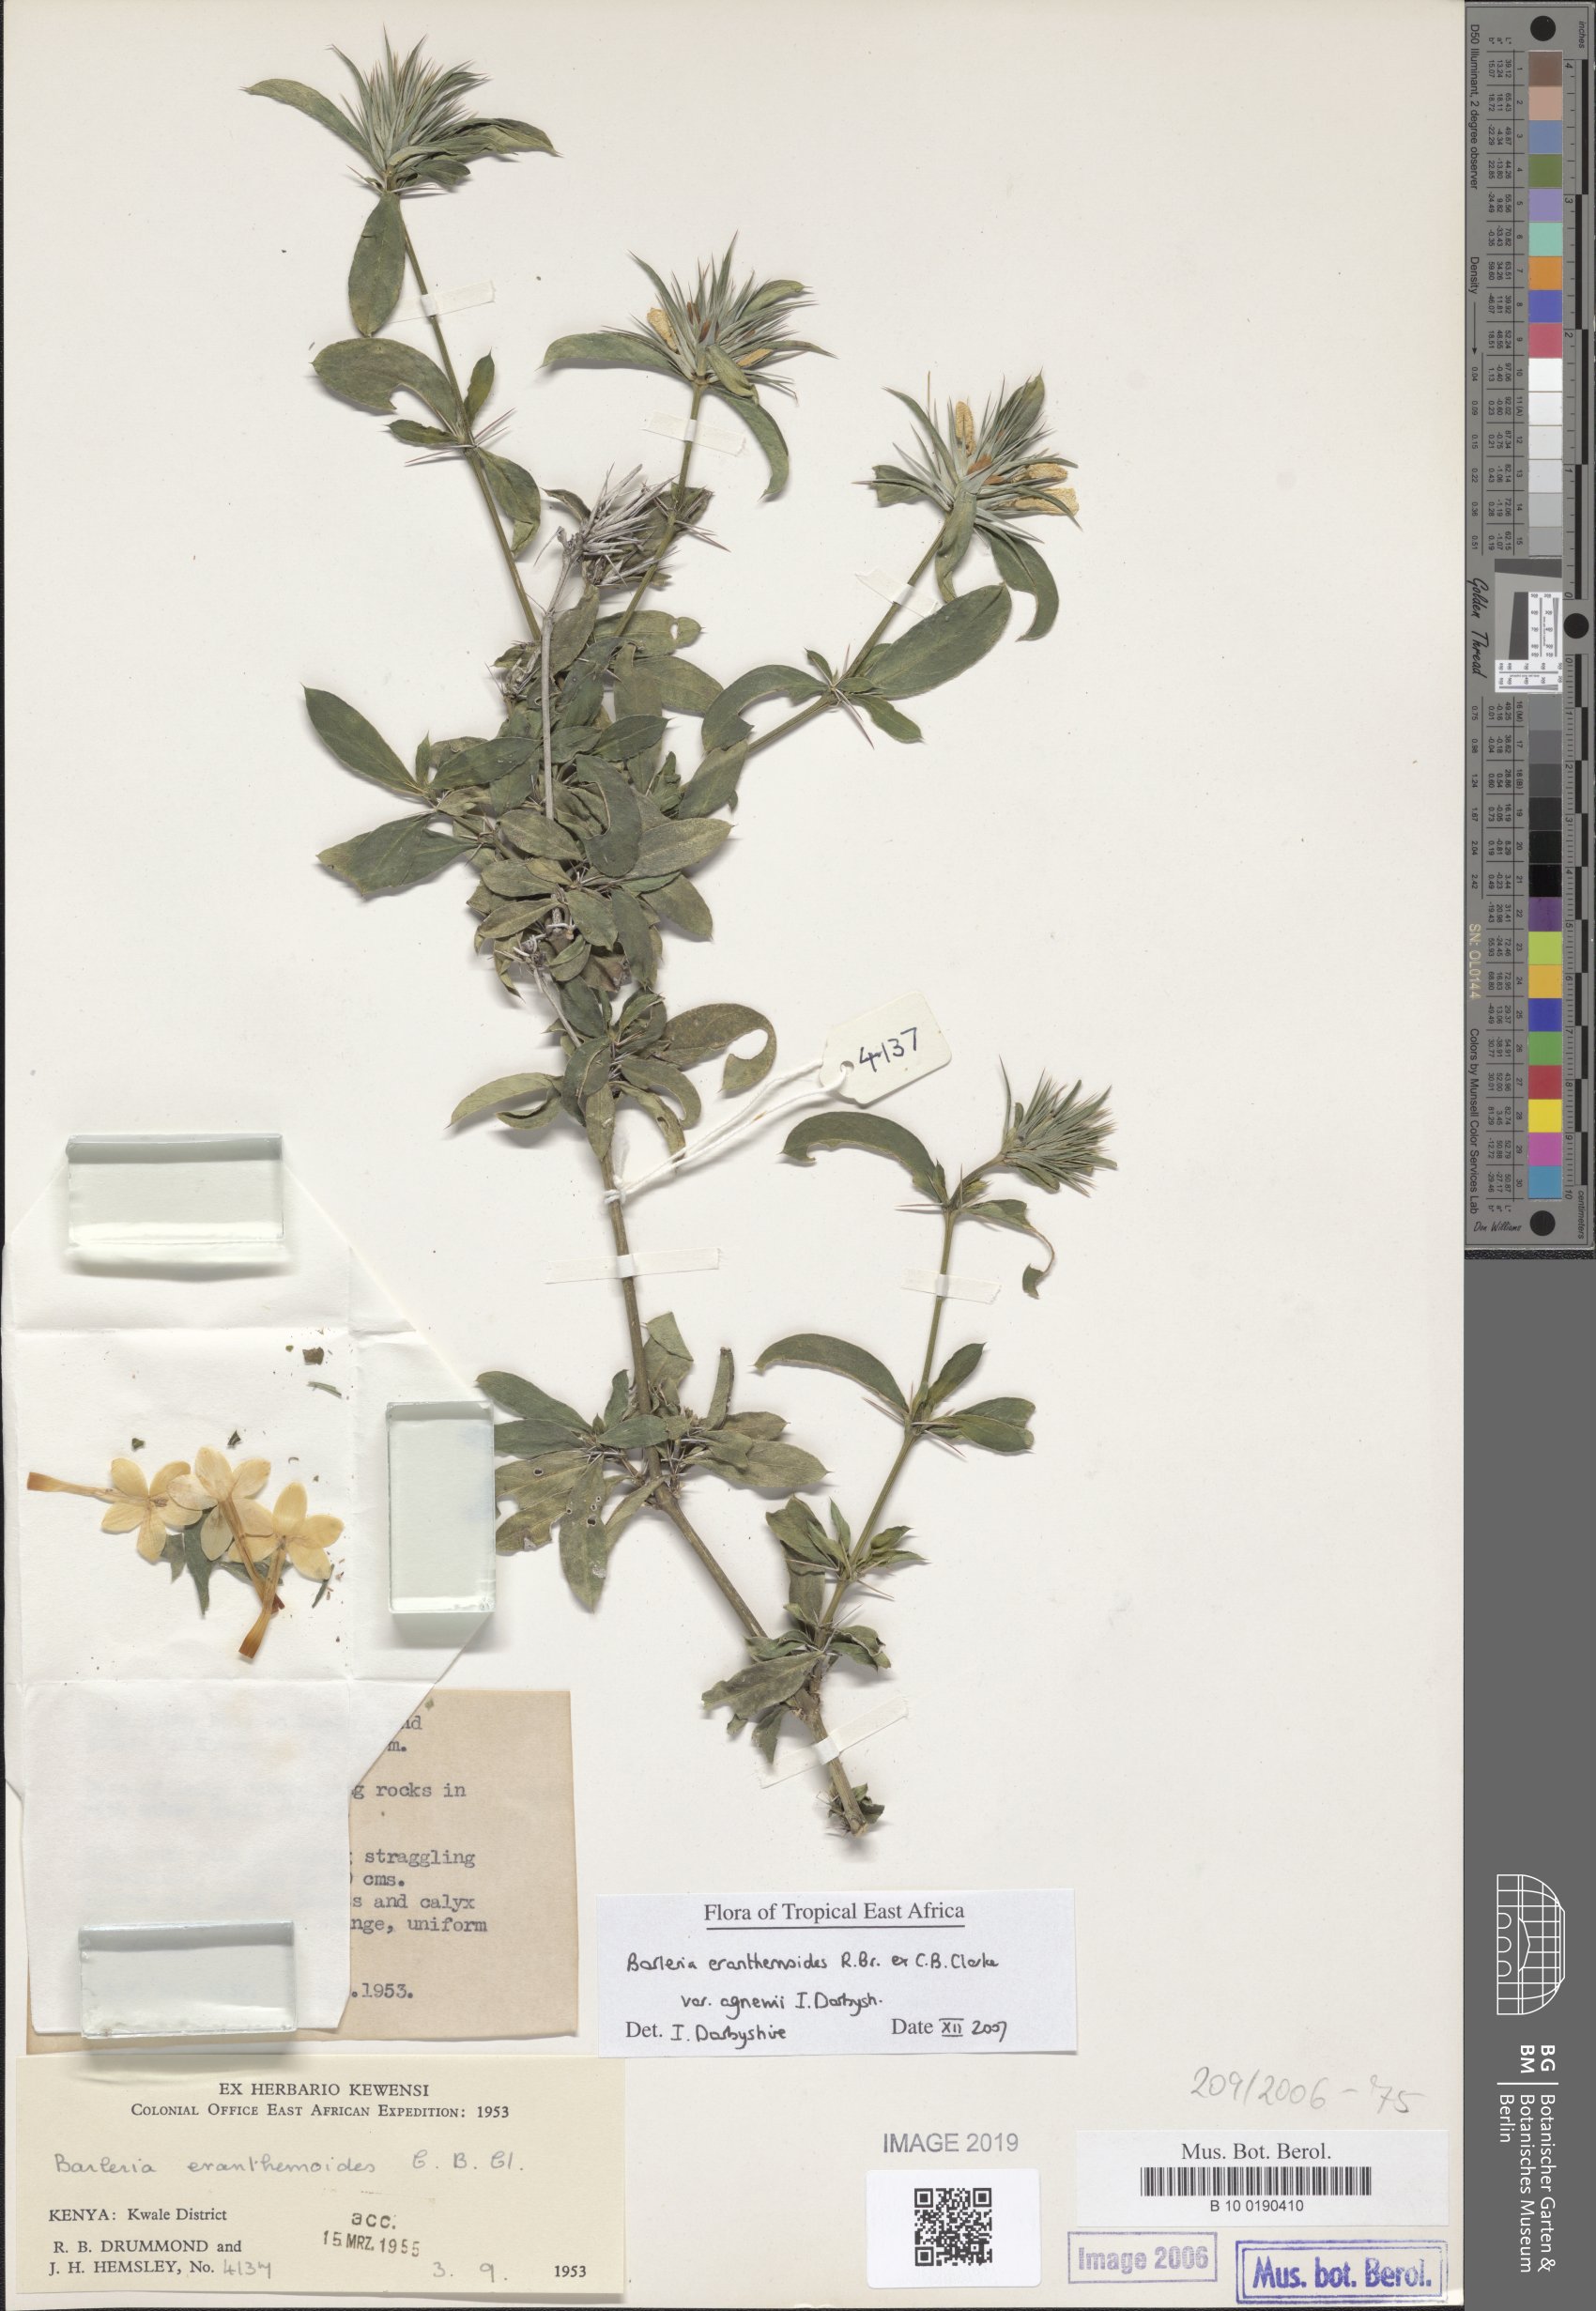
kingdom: Plantae
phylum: Tracheophyta
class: Magnoliopsida
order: Lamiales
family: Acanthaceae
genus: Barleria
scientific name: Barleria eranthemoides
